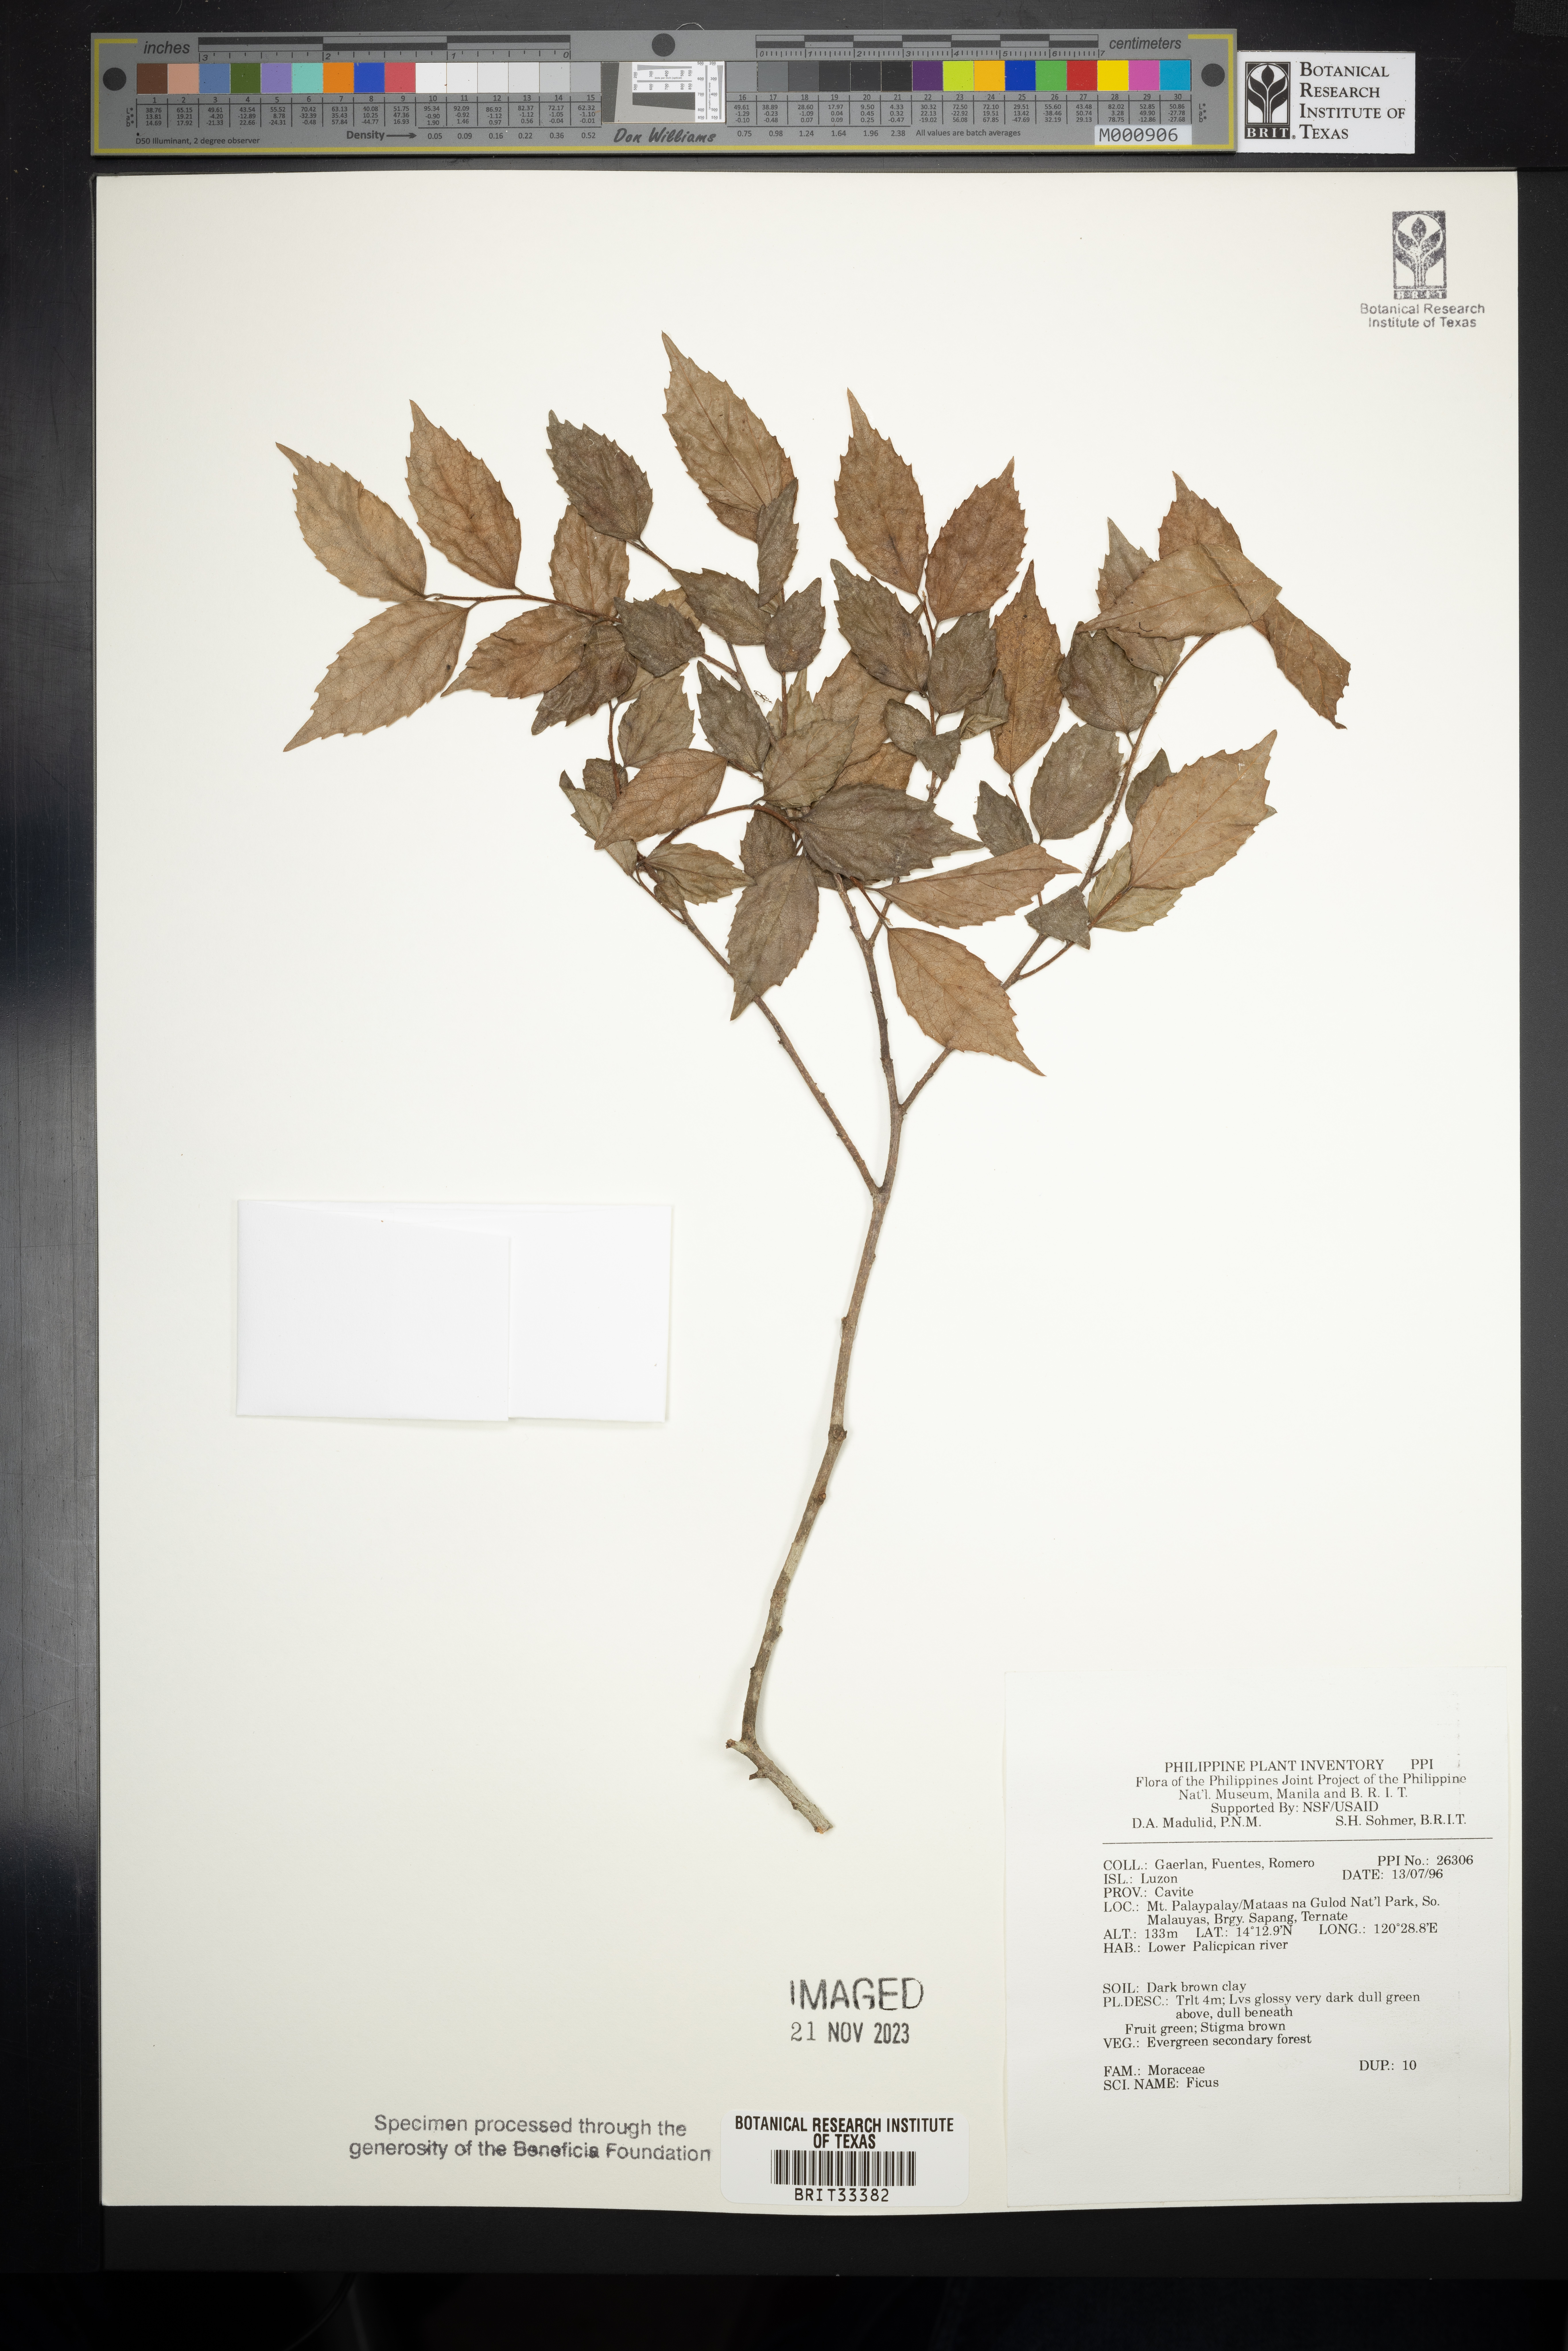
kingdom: Plantae
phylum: Tracheophyta
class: Magnoliopsida
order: Rosales
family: Moraceae
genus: Ficus
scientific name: Ficus
